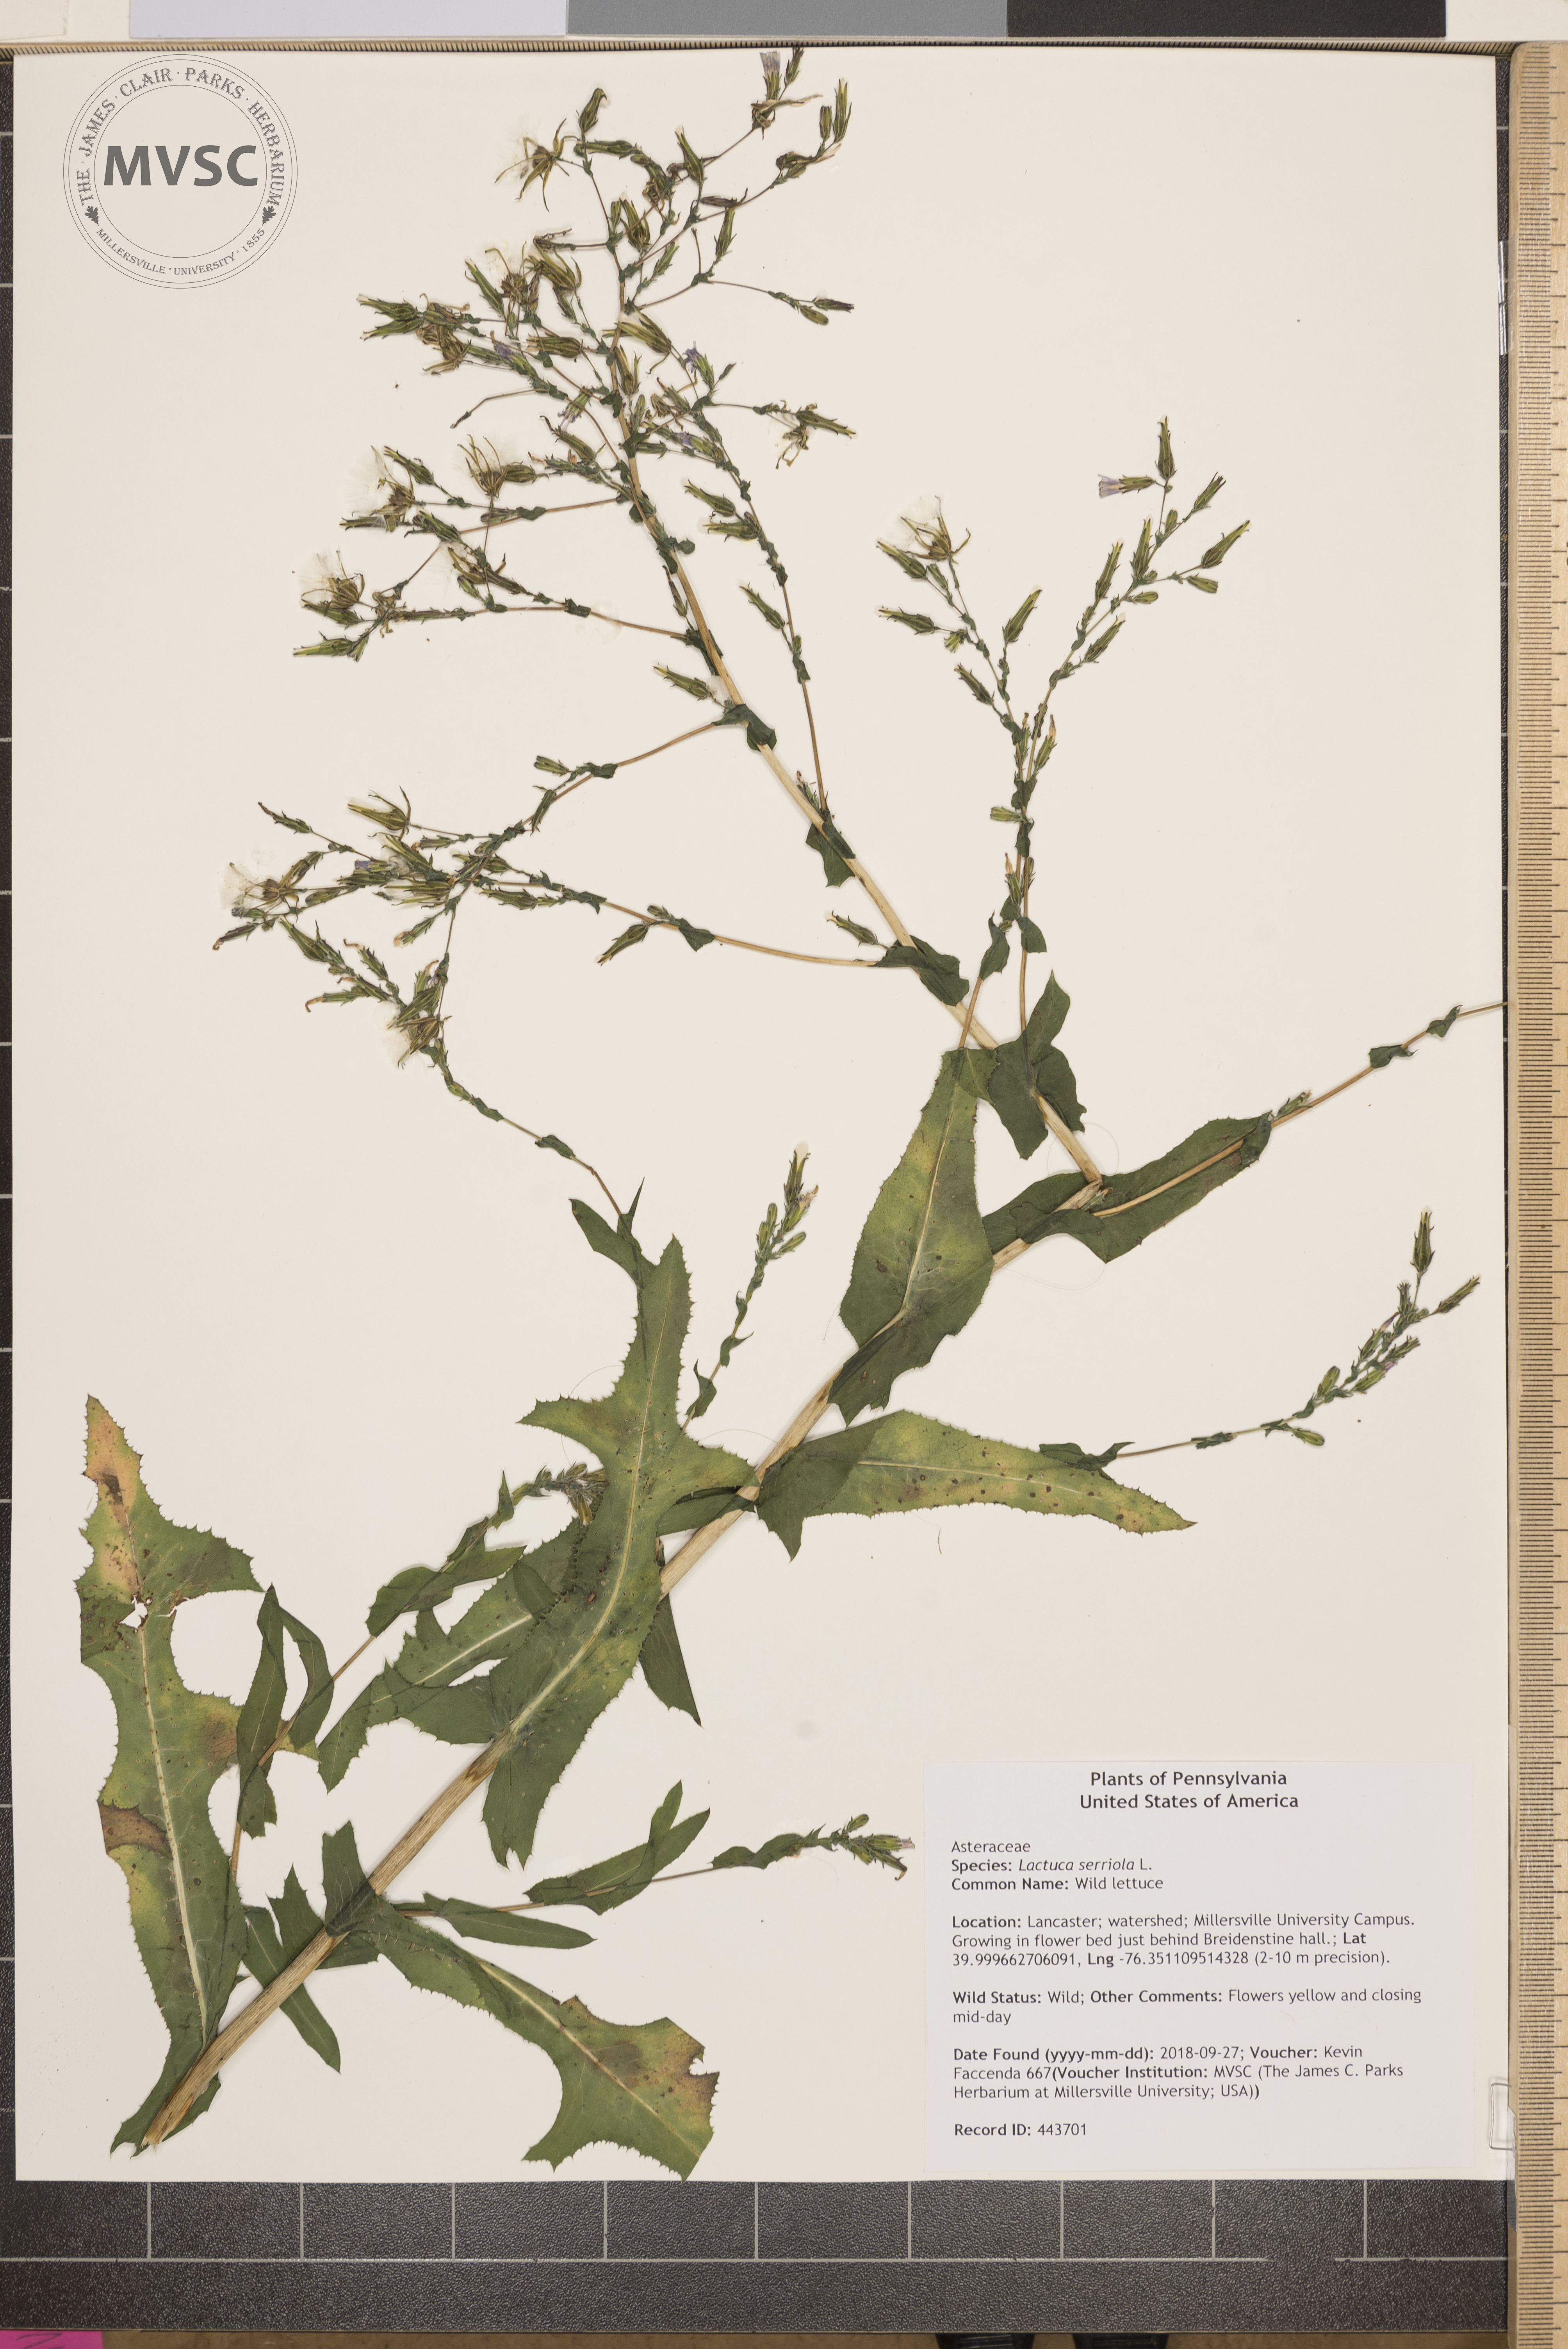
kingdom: Plantae
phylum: Tracheophyta
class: Magnoliopsida
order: Asterales
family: Asteraceae
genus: Lactuca
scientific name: Lactuca serriola
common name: Wild lettuce
